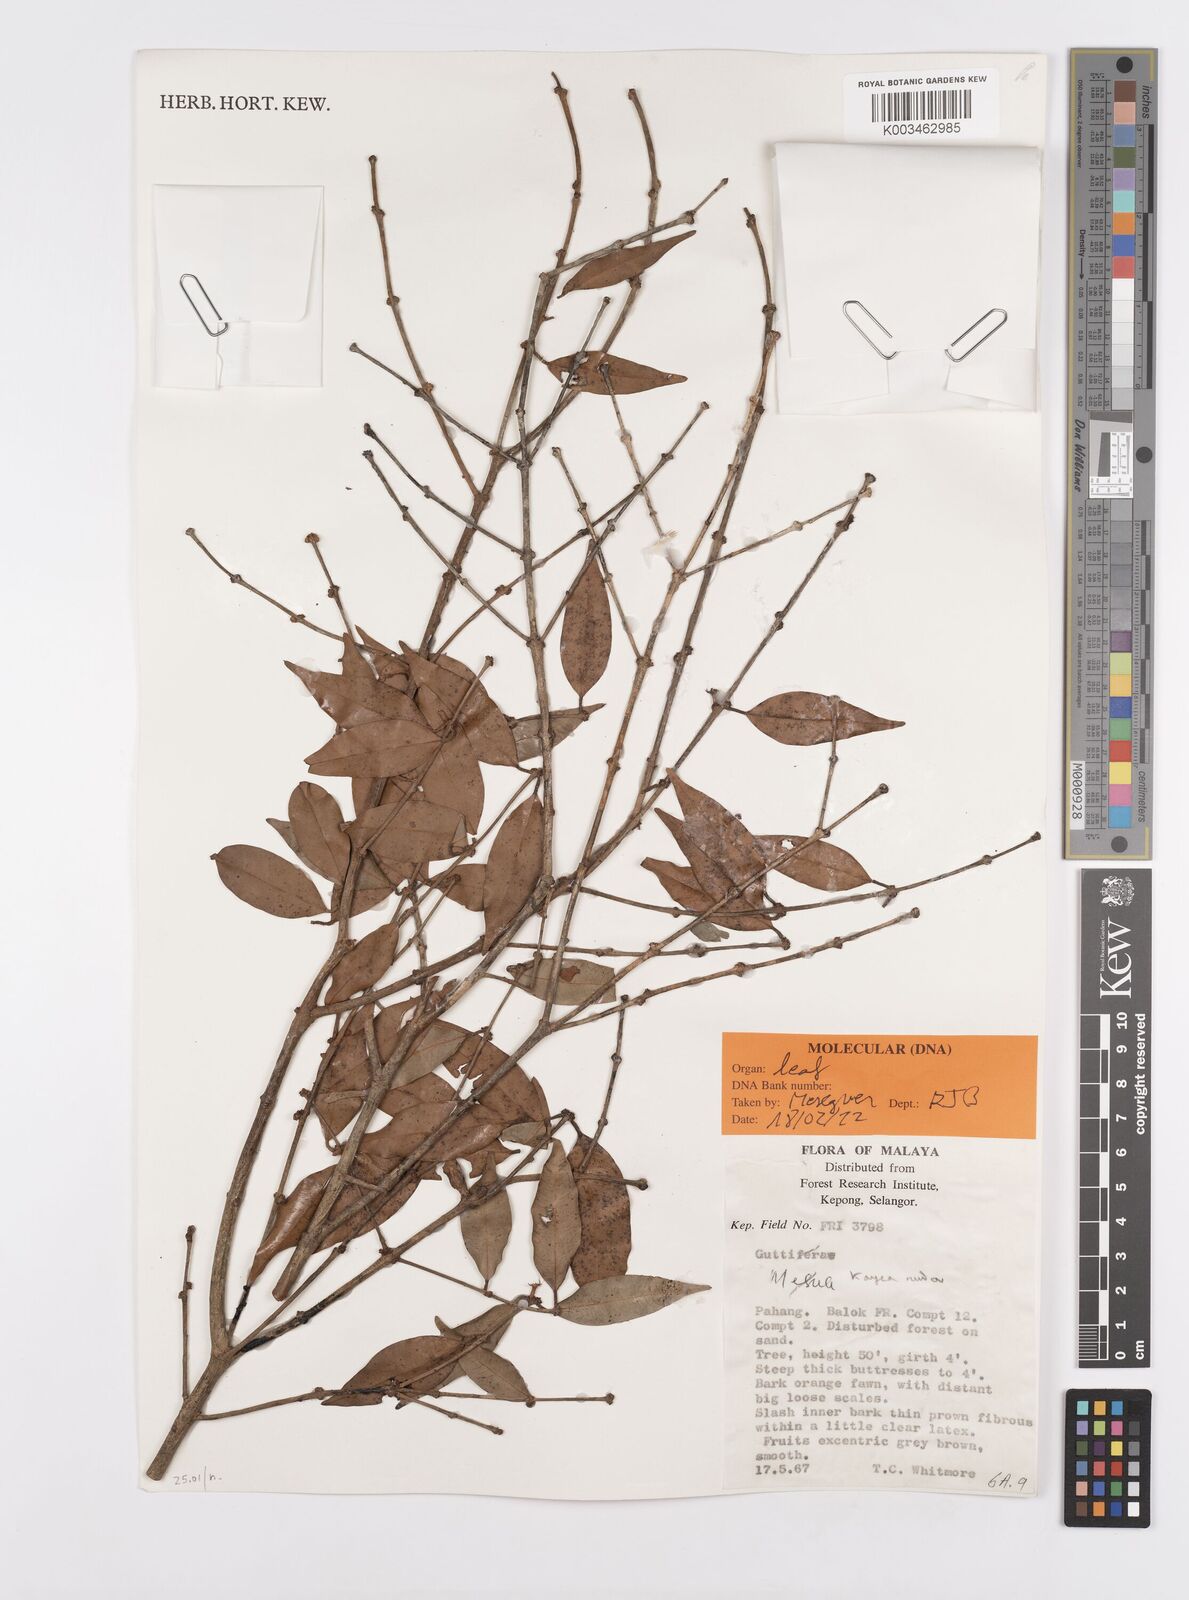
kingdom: Plantae
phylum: Tracheophyta
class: Magnoliopsida
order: Malpighiales
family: Calophyllaceae
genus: Kayea
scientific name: Kayea
